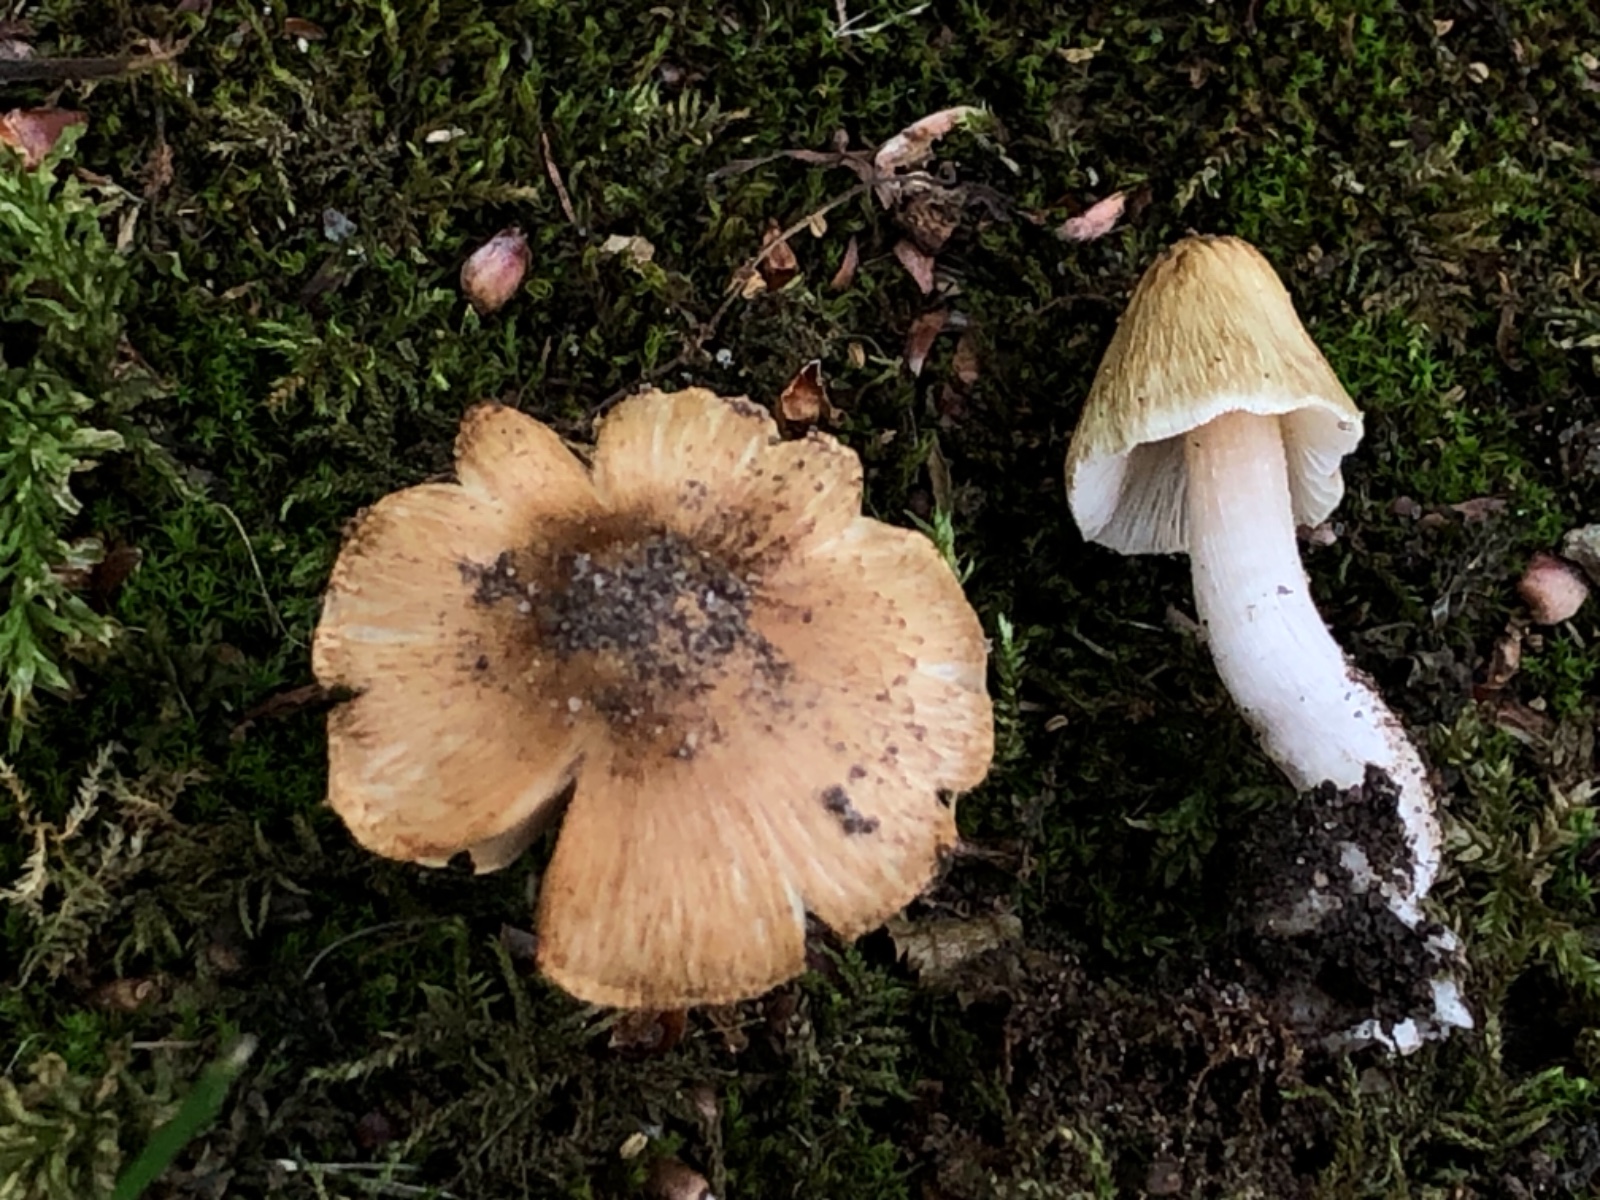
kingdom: Fungi
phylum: Basidiomycota
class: Agaricomycetes
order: Agaricales
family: Inocybaceae
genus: Pseudosperma
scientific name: Pseudosperma
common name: trævlhat
